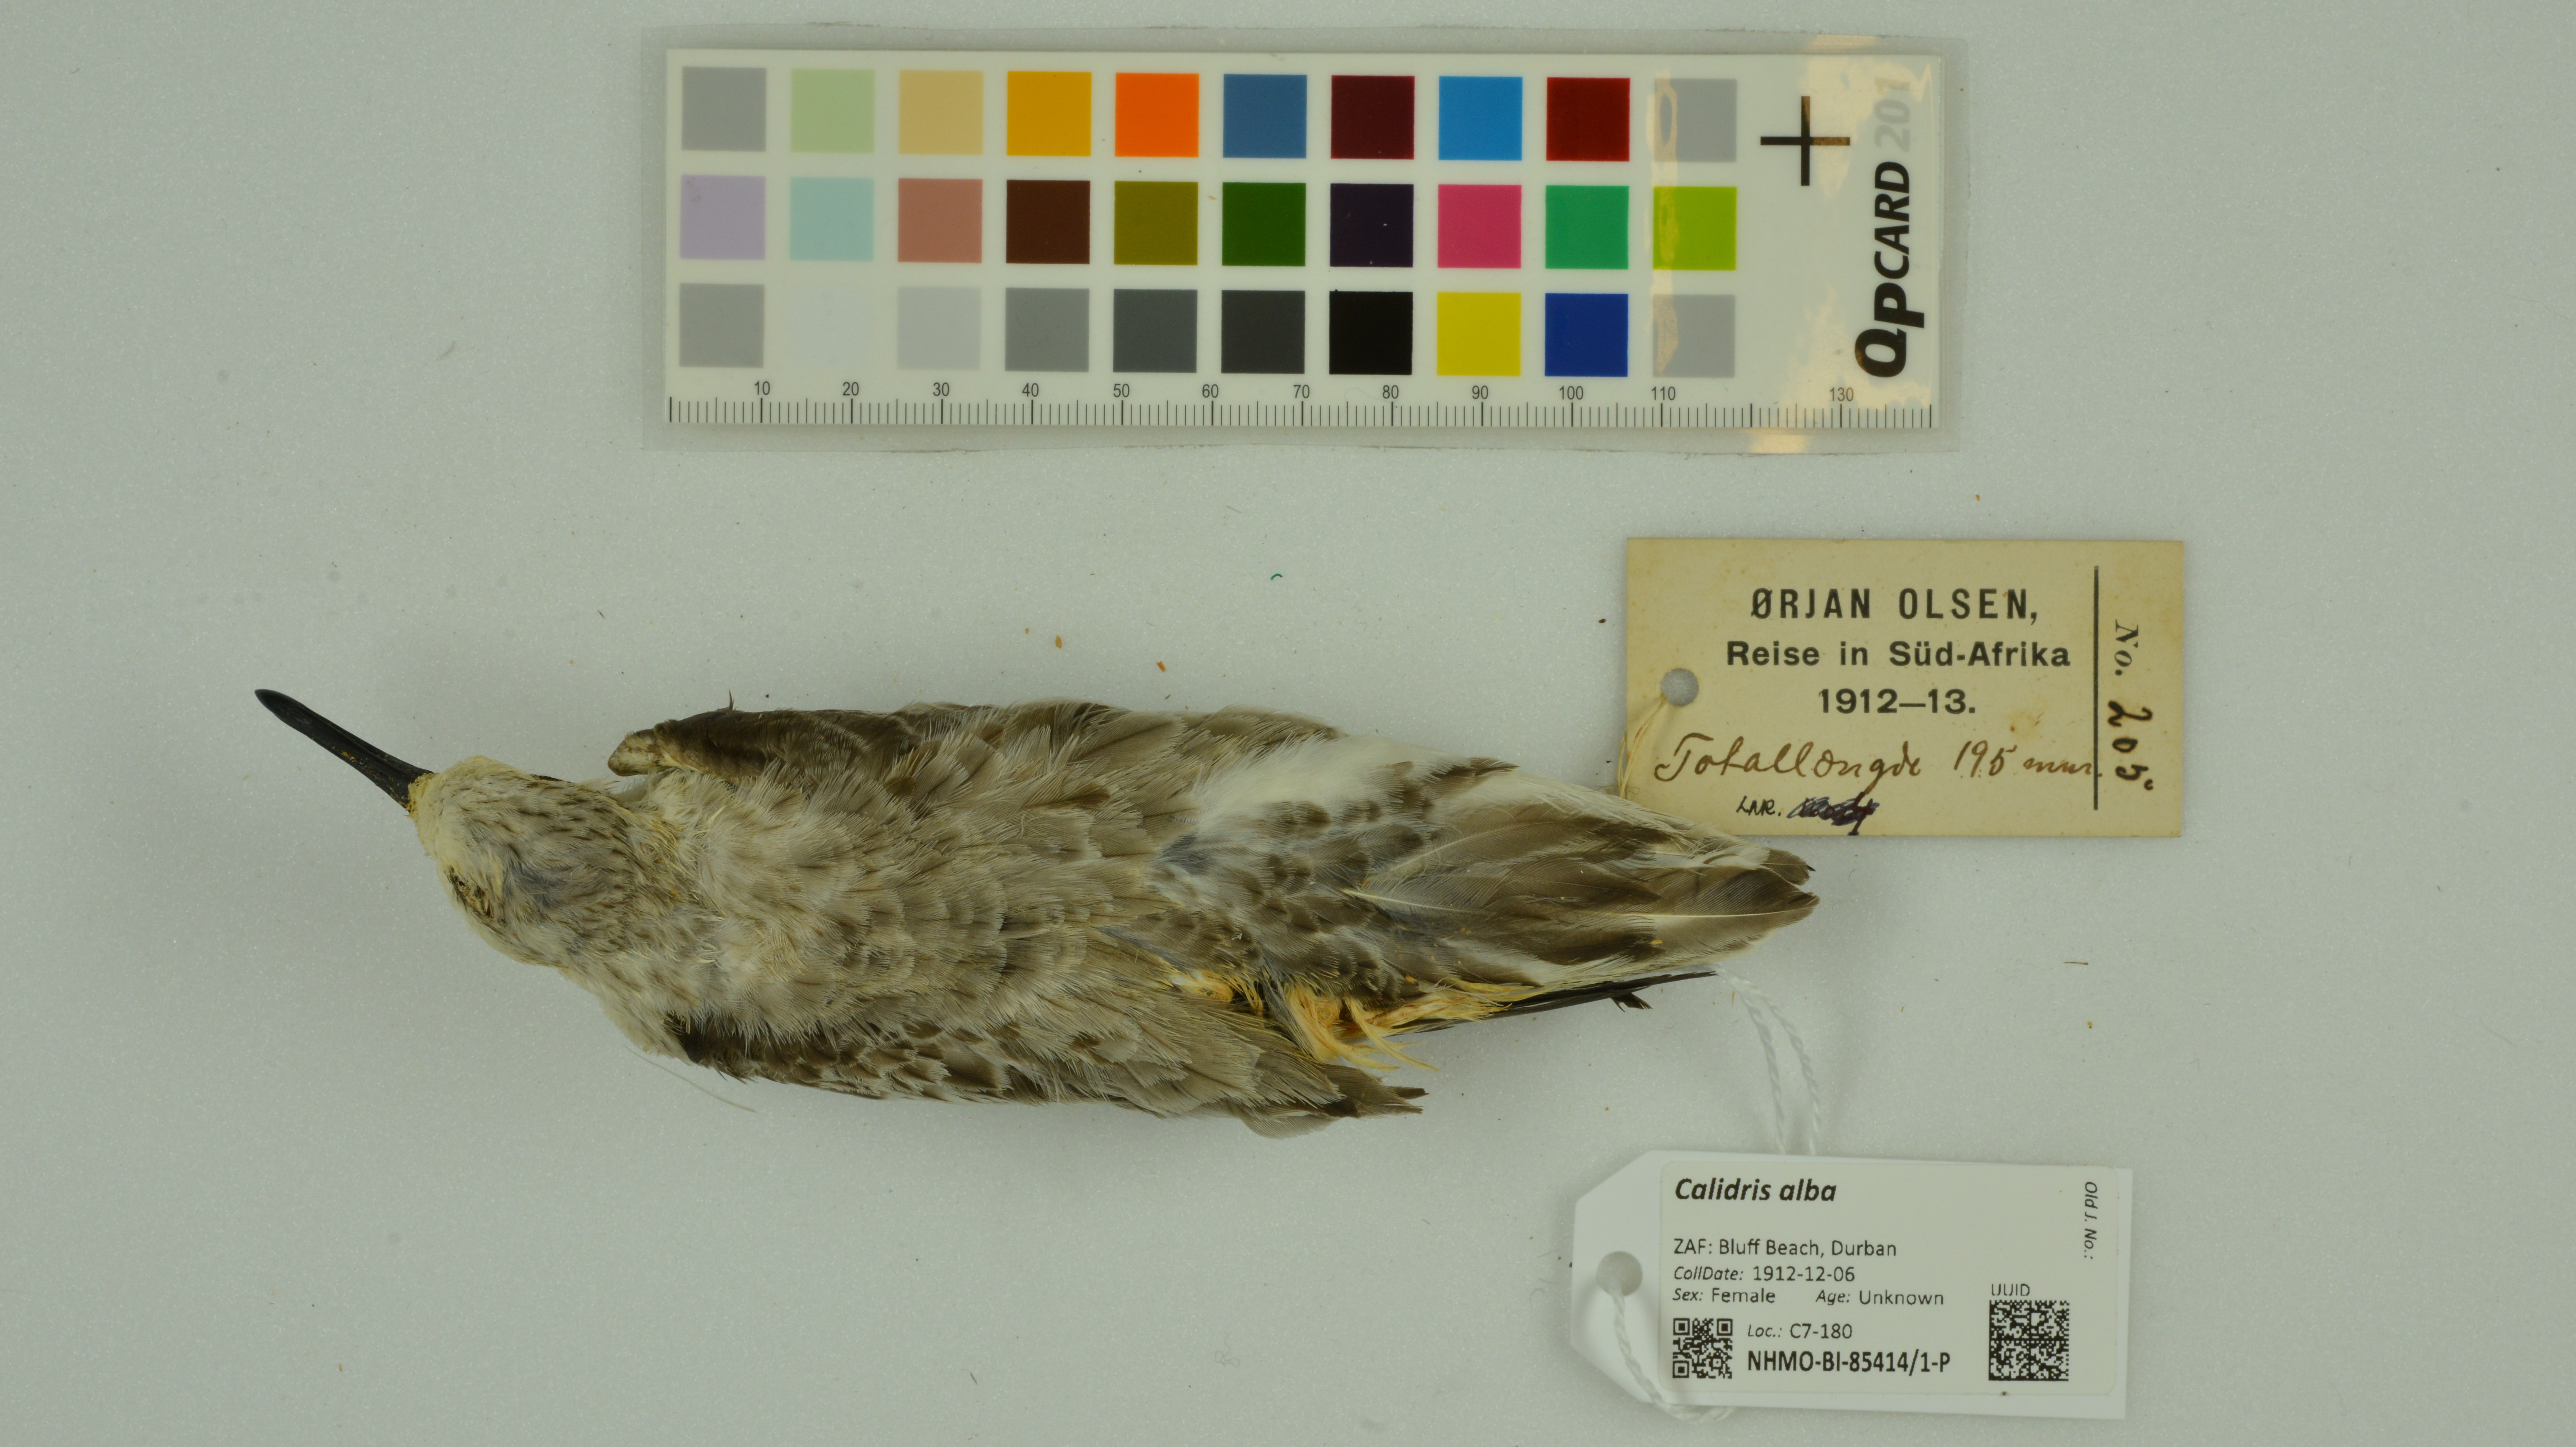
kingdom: Animalia
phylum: Chordata
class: Aves
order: Charadriiformes
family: Scolopacidae
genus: Calidris
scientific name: Calidris alba
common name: Sanderling
